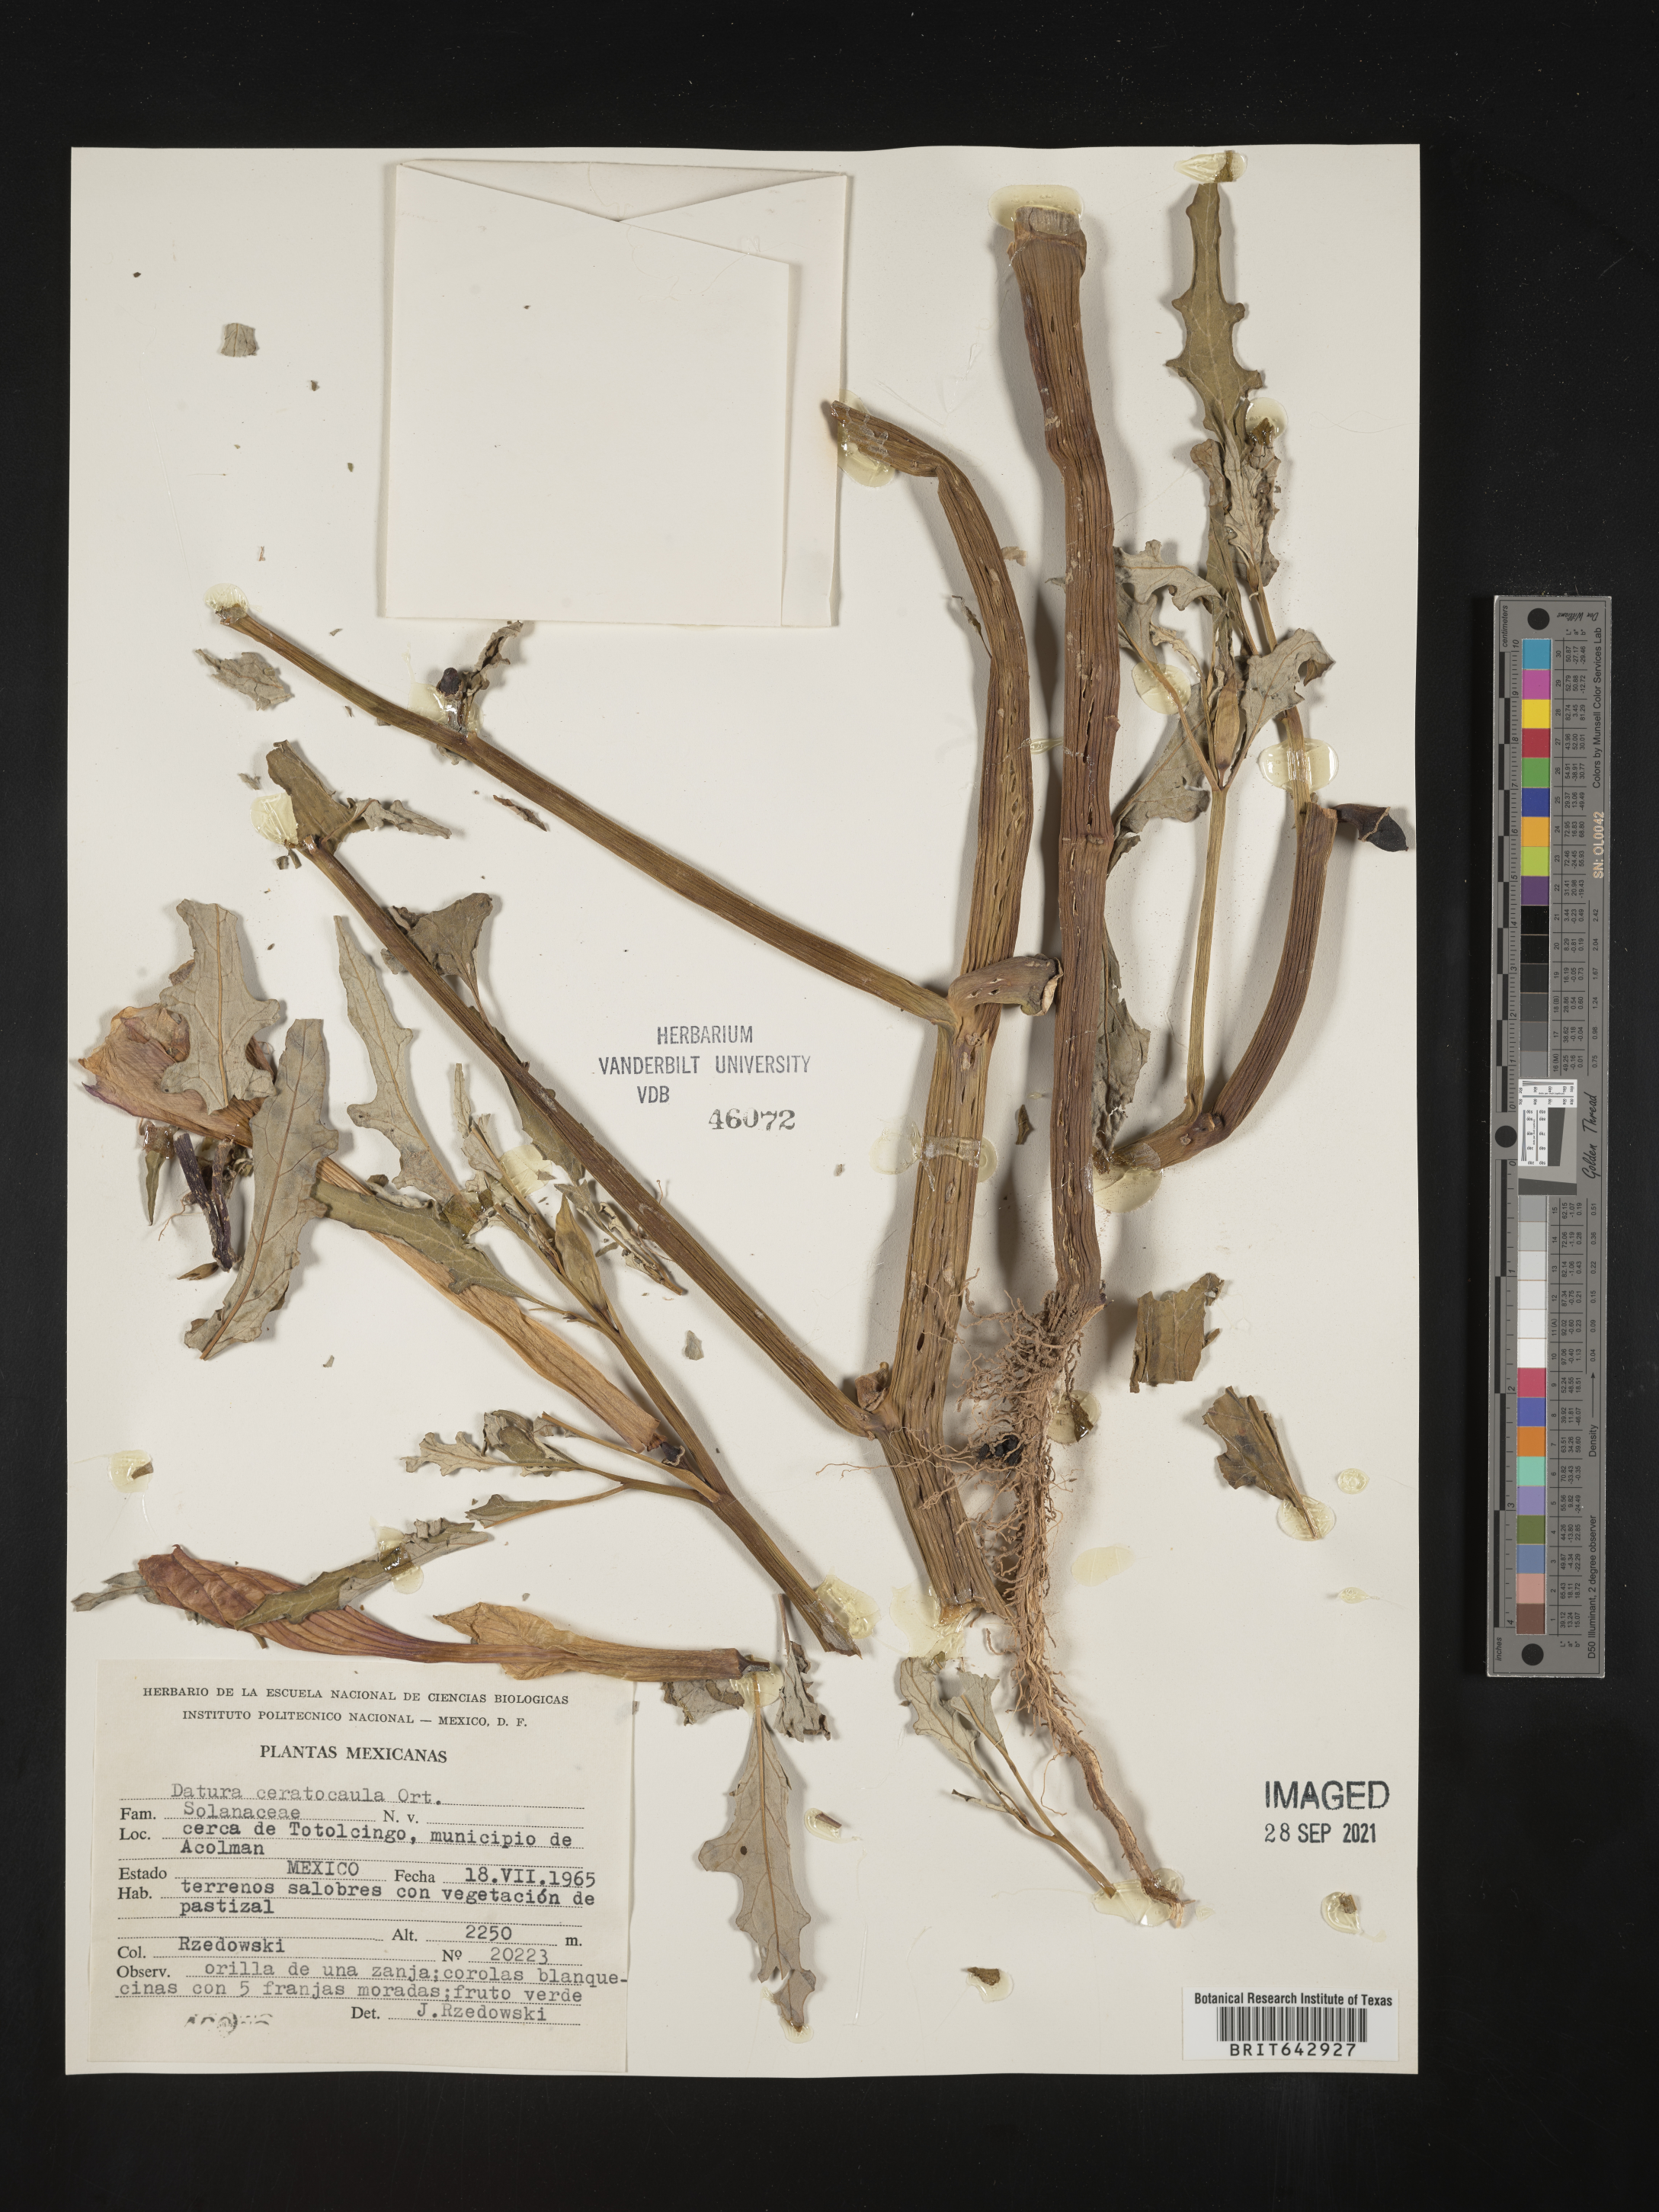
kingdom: Plantae
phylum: Tracheophyta
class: Magnoliopsida
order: Solanales
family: Solanaceae
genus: Datura
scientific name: Datura
